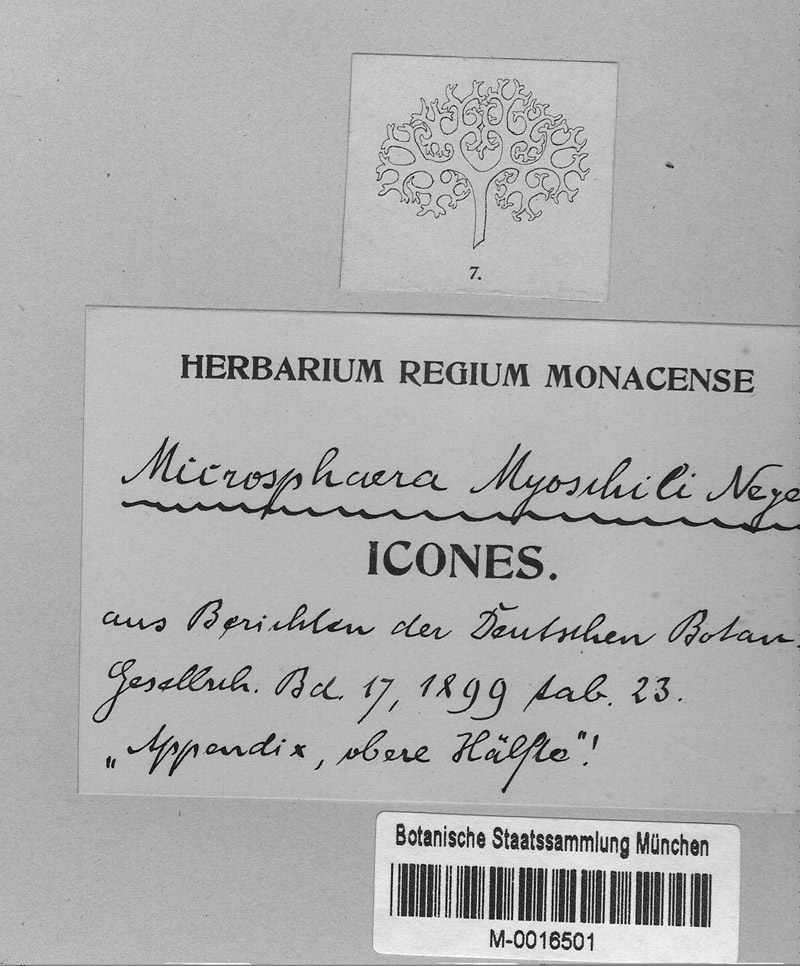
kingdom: Fungi
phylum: Ascomycota
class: Leotiomycetes
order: Helotiales
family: Erysiphaceae
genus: Erysiphe
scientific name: Erysiphe myoschili
